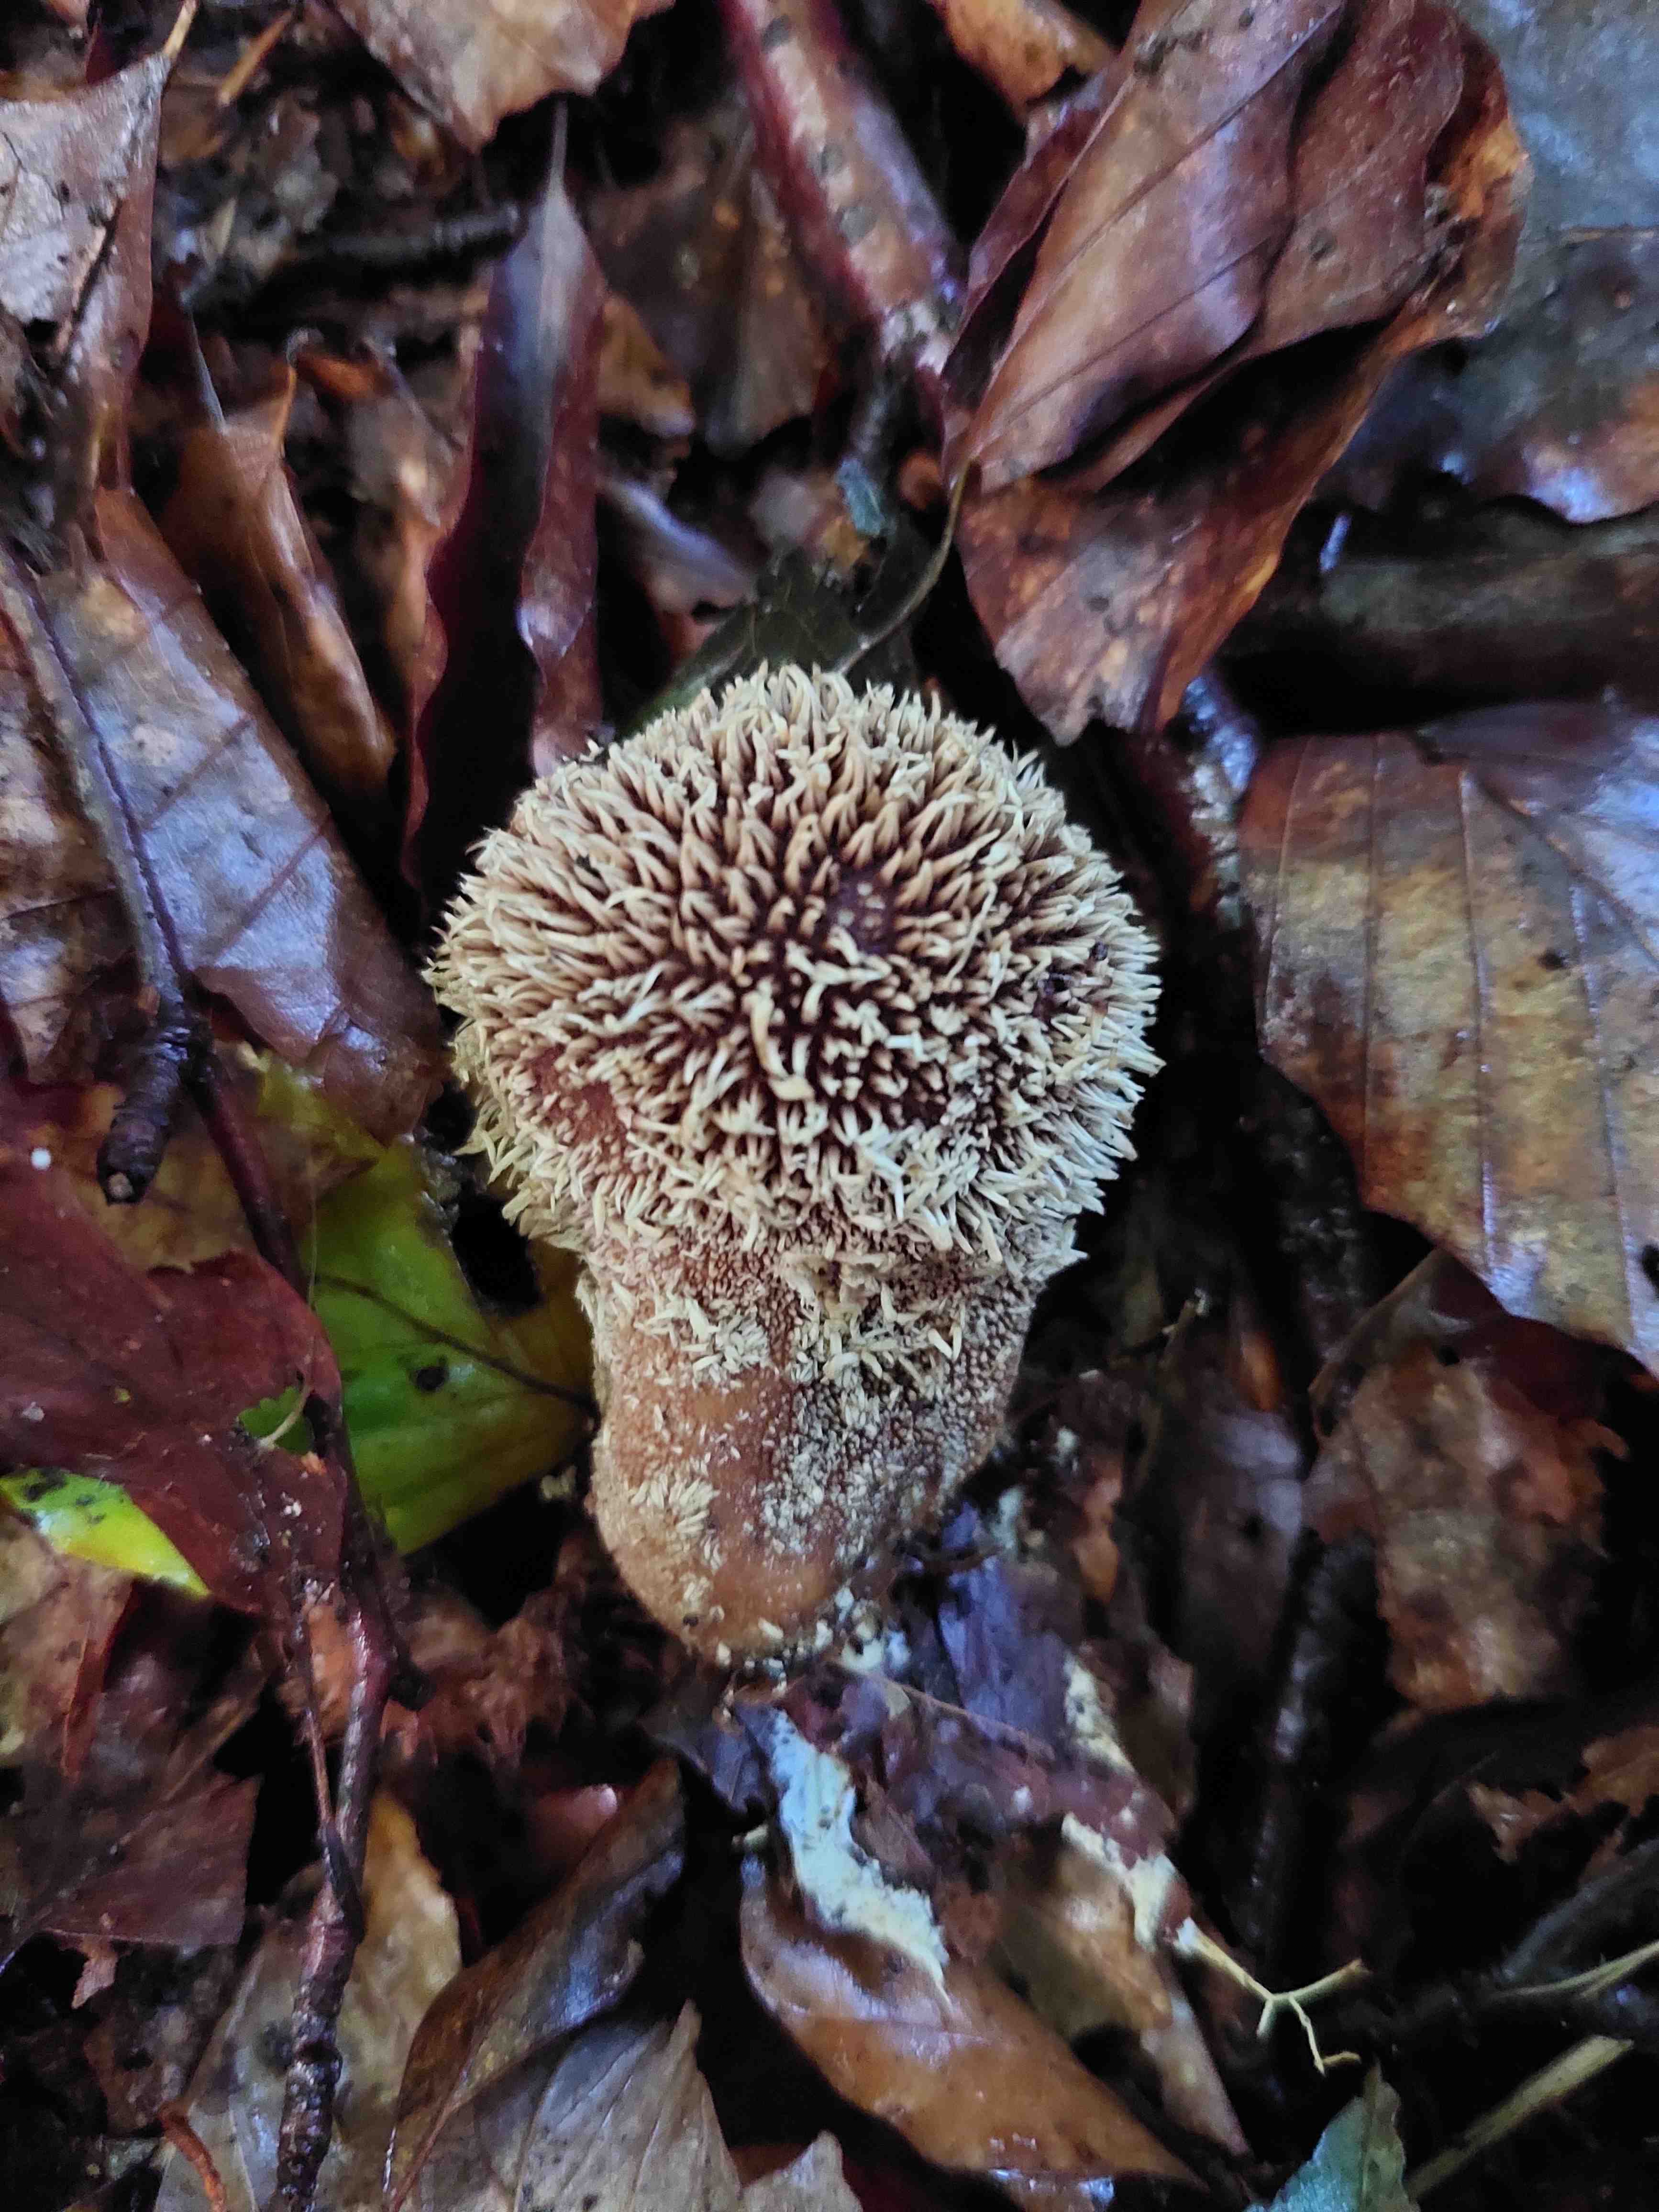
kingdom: Fungi
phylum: Basidiomycota
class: Agaricomycetes
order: Agaricales
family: Lycoperdaceae
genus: Lycoperdon
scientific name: Lycoperdon echinatum
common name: pindsvine-støvbold
